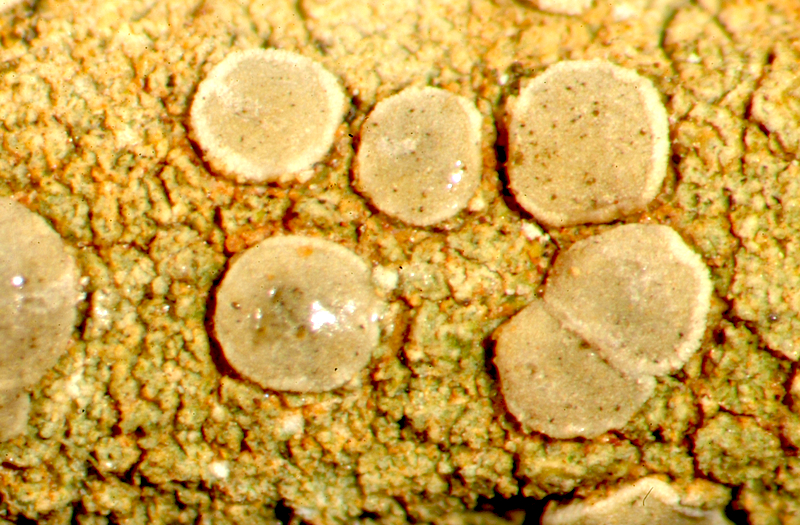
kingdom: Fungi
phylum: Ascomycota
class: Lecanoromycetes
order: Lecanorales
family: Ramalinaceae
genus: Bacidia
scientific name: Bacidia
